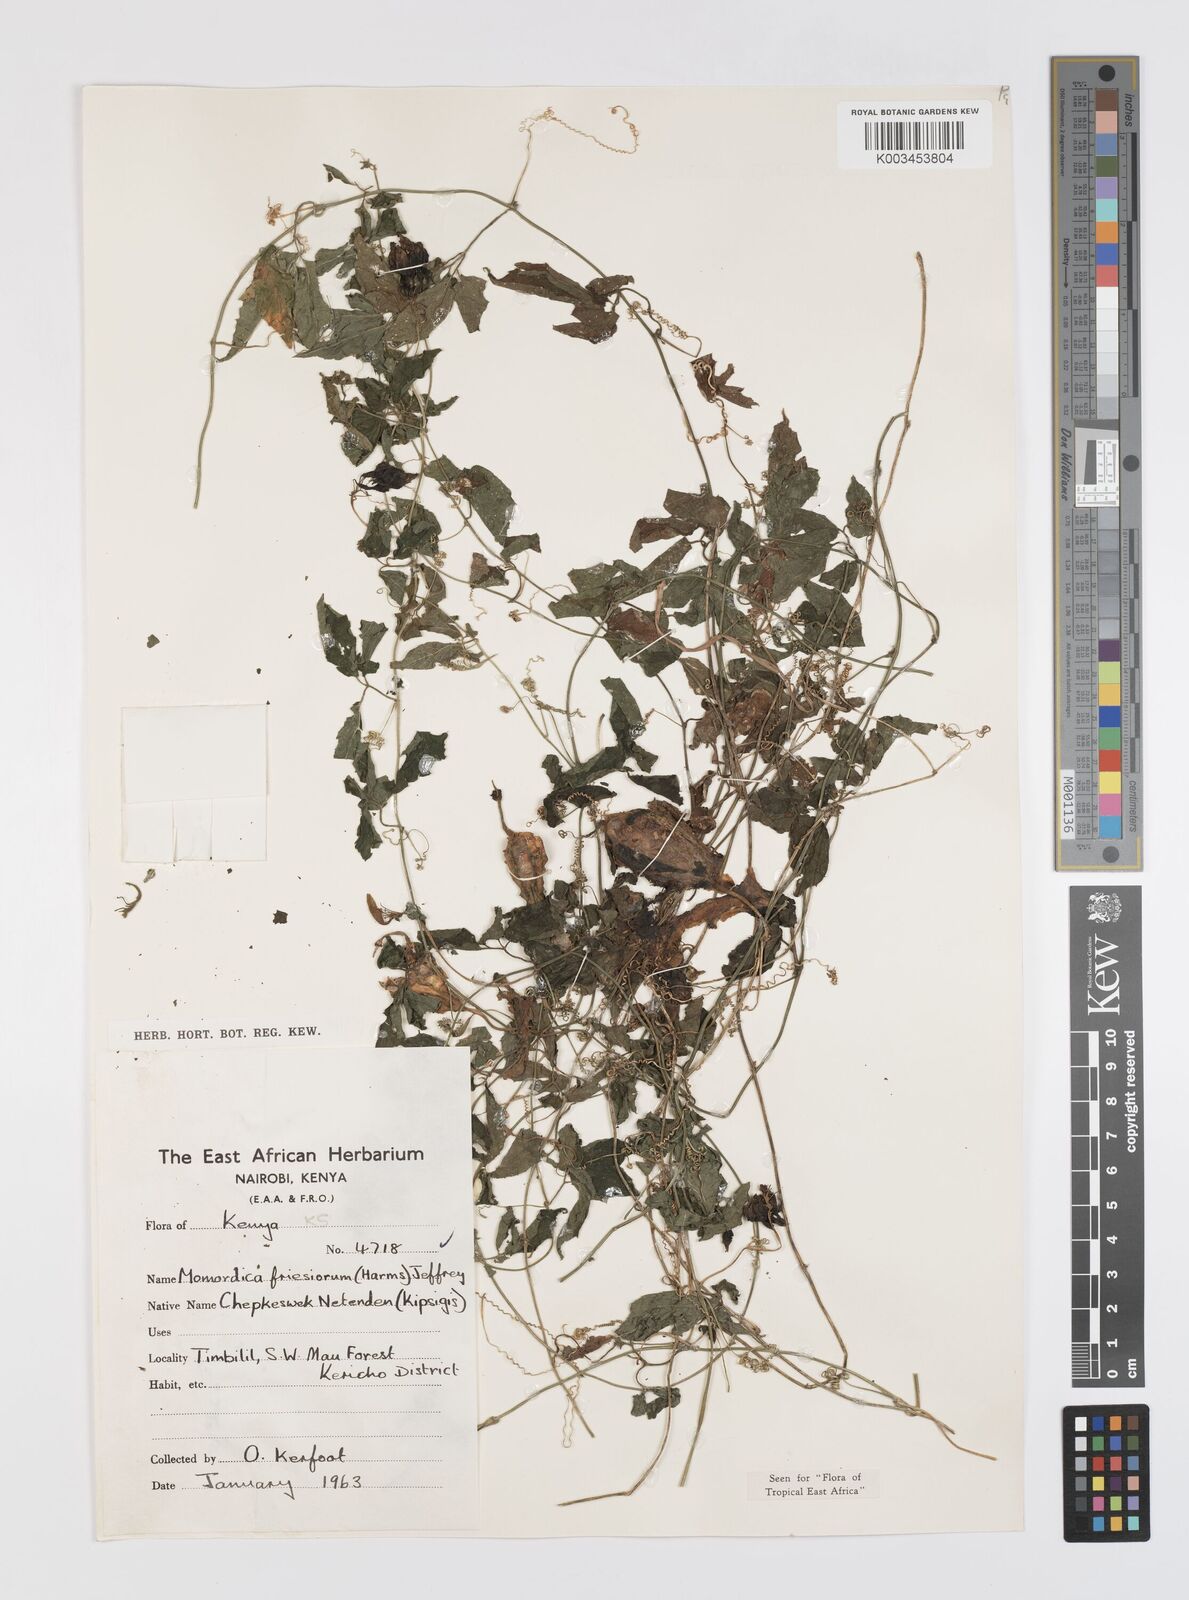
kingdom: Plantae
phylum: Tracheophyta
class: Magnoliopsida
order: Cucurbitales
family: Cucurbitaceae
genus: Momordica
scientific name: Momordica friesiorum
